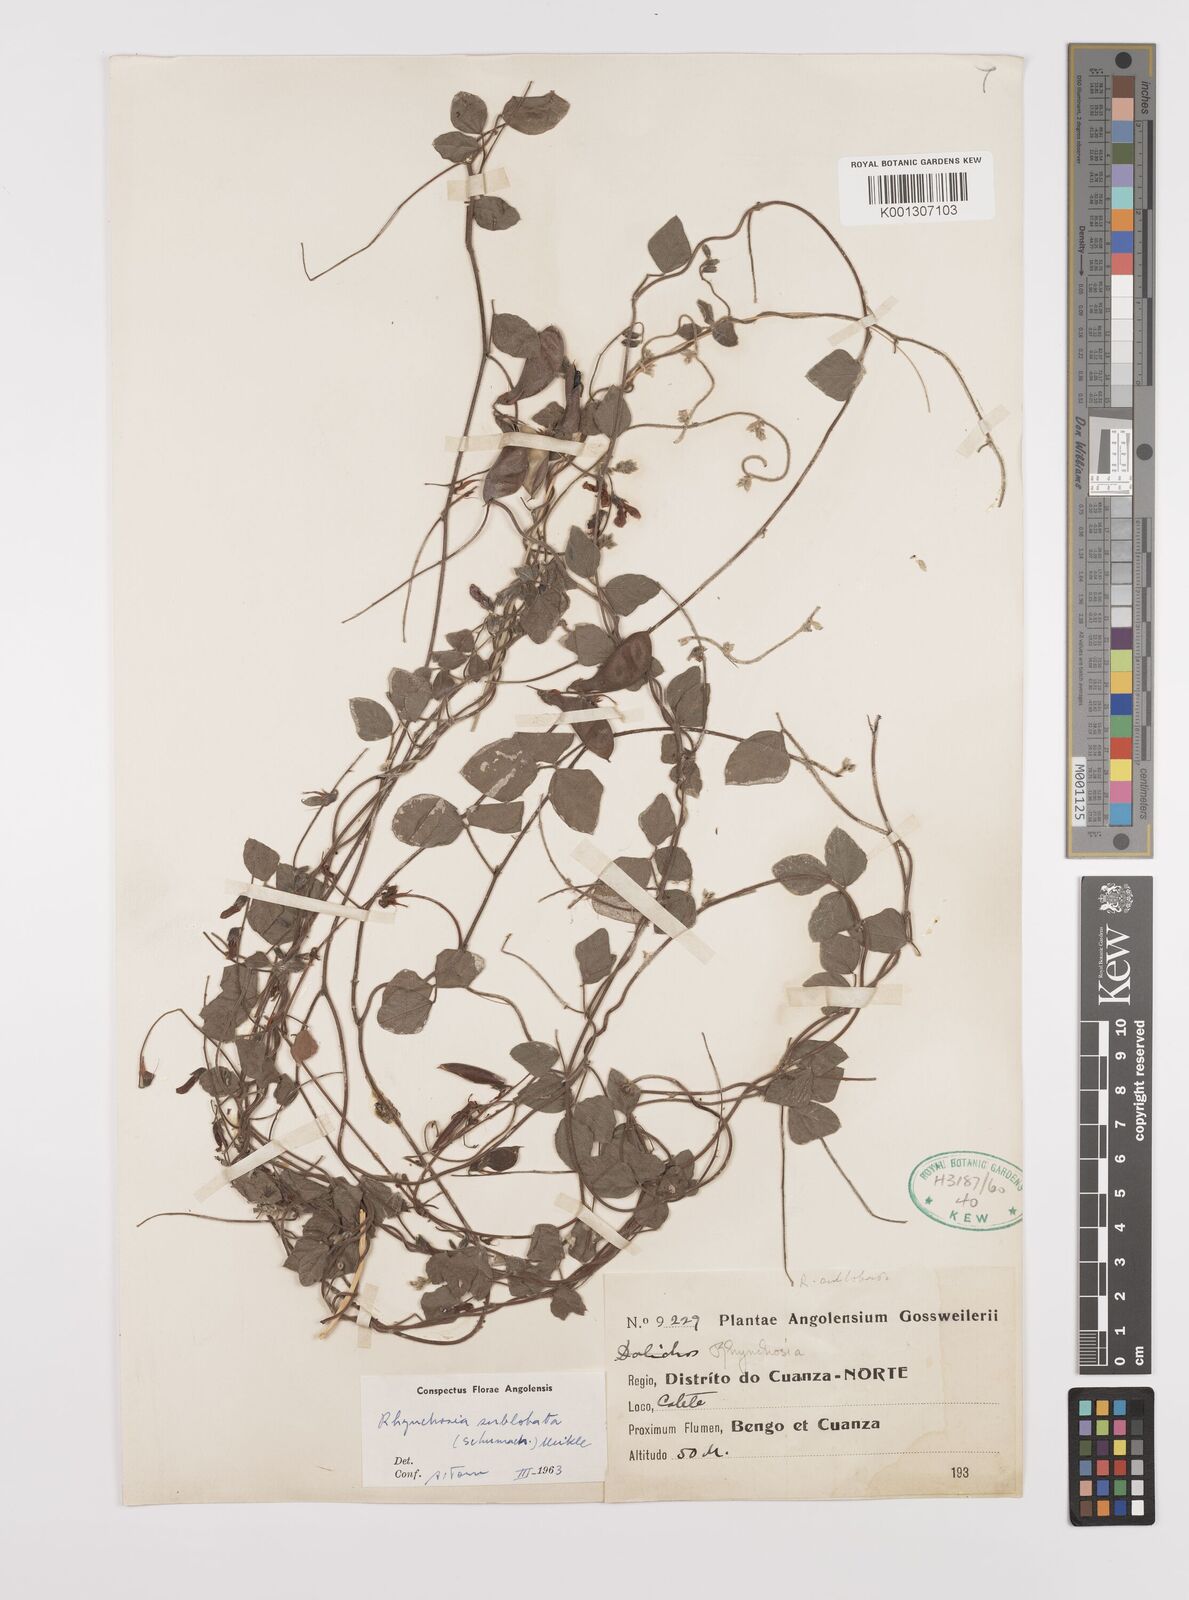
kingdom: Plantae
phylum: Tracheophyta
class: Magnoliopsida
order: Fabales
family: Fabaceae
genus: Rhynchosia
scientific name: Rhynchosia sublobata
